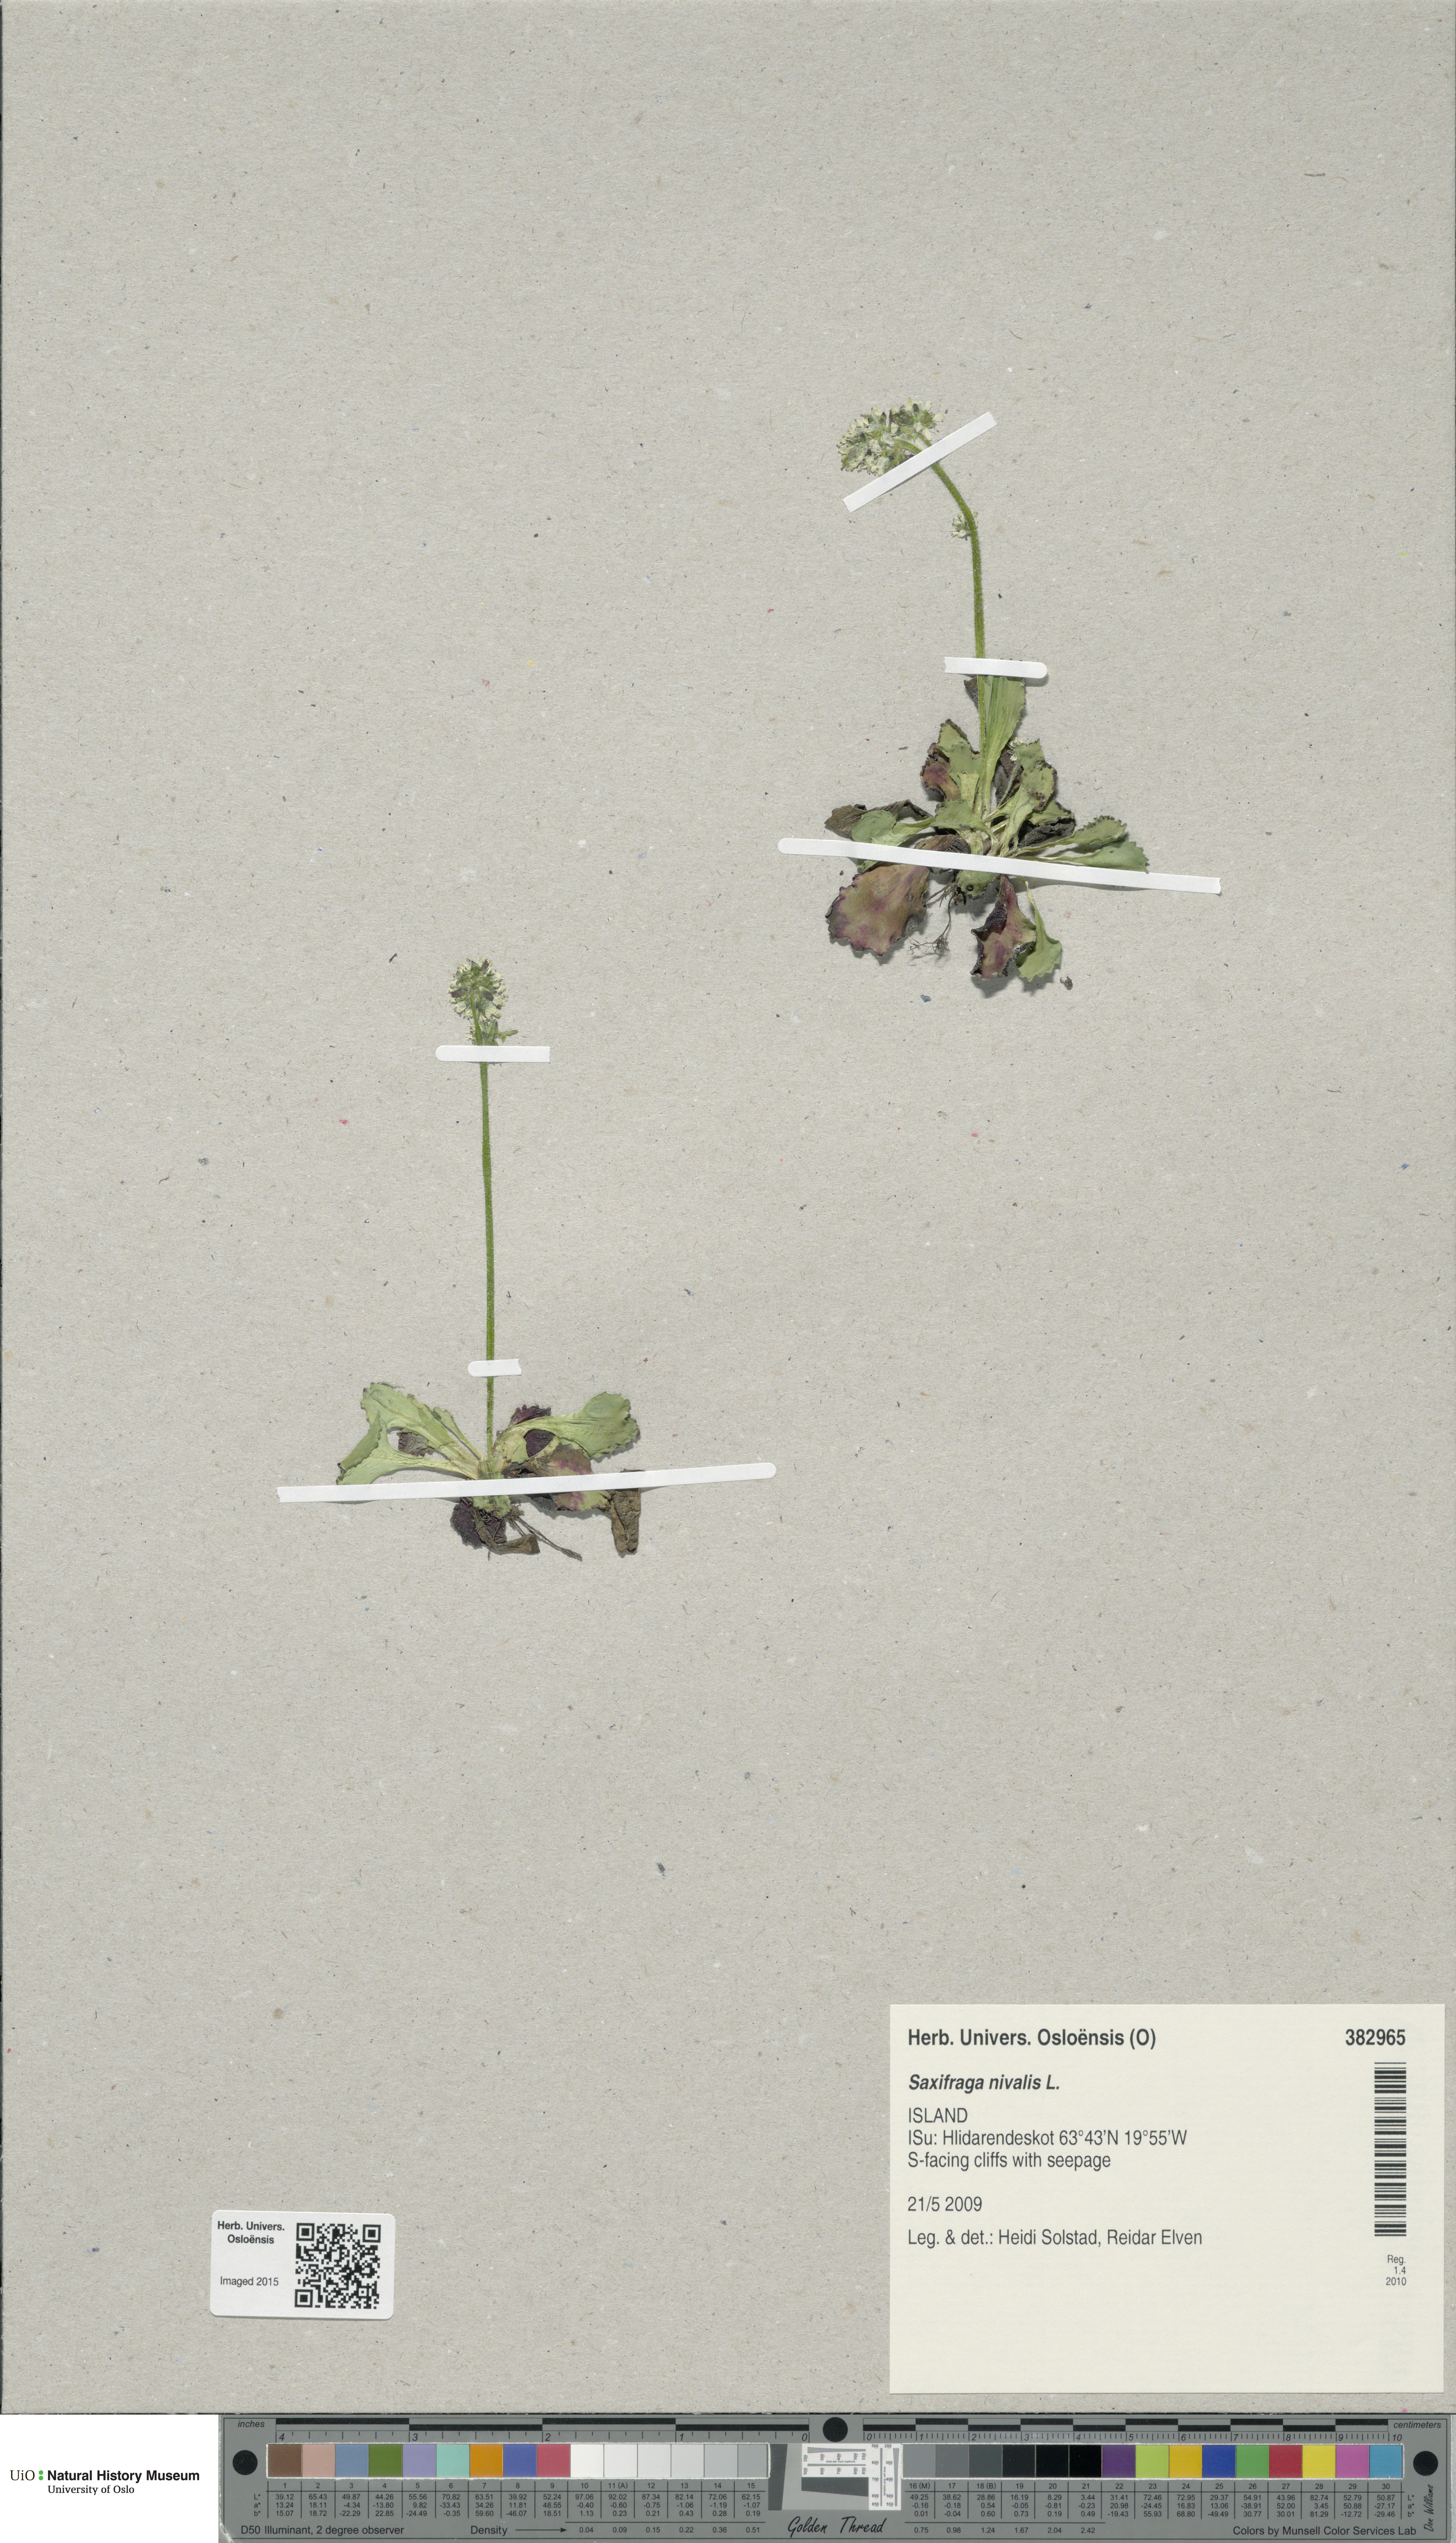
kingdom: Plantae
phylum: Tracheophyta
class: Magnoliopsida
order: Saxifragales
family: Saxifragaceae
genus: Micranthes
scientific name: Micranthes nivalis
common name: Alpine saxifrage
